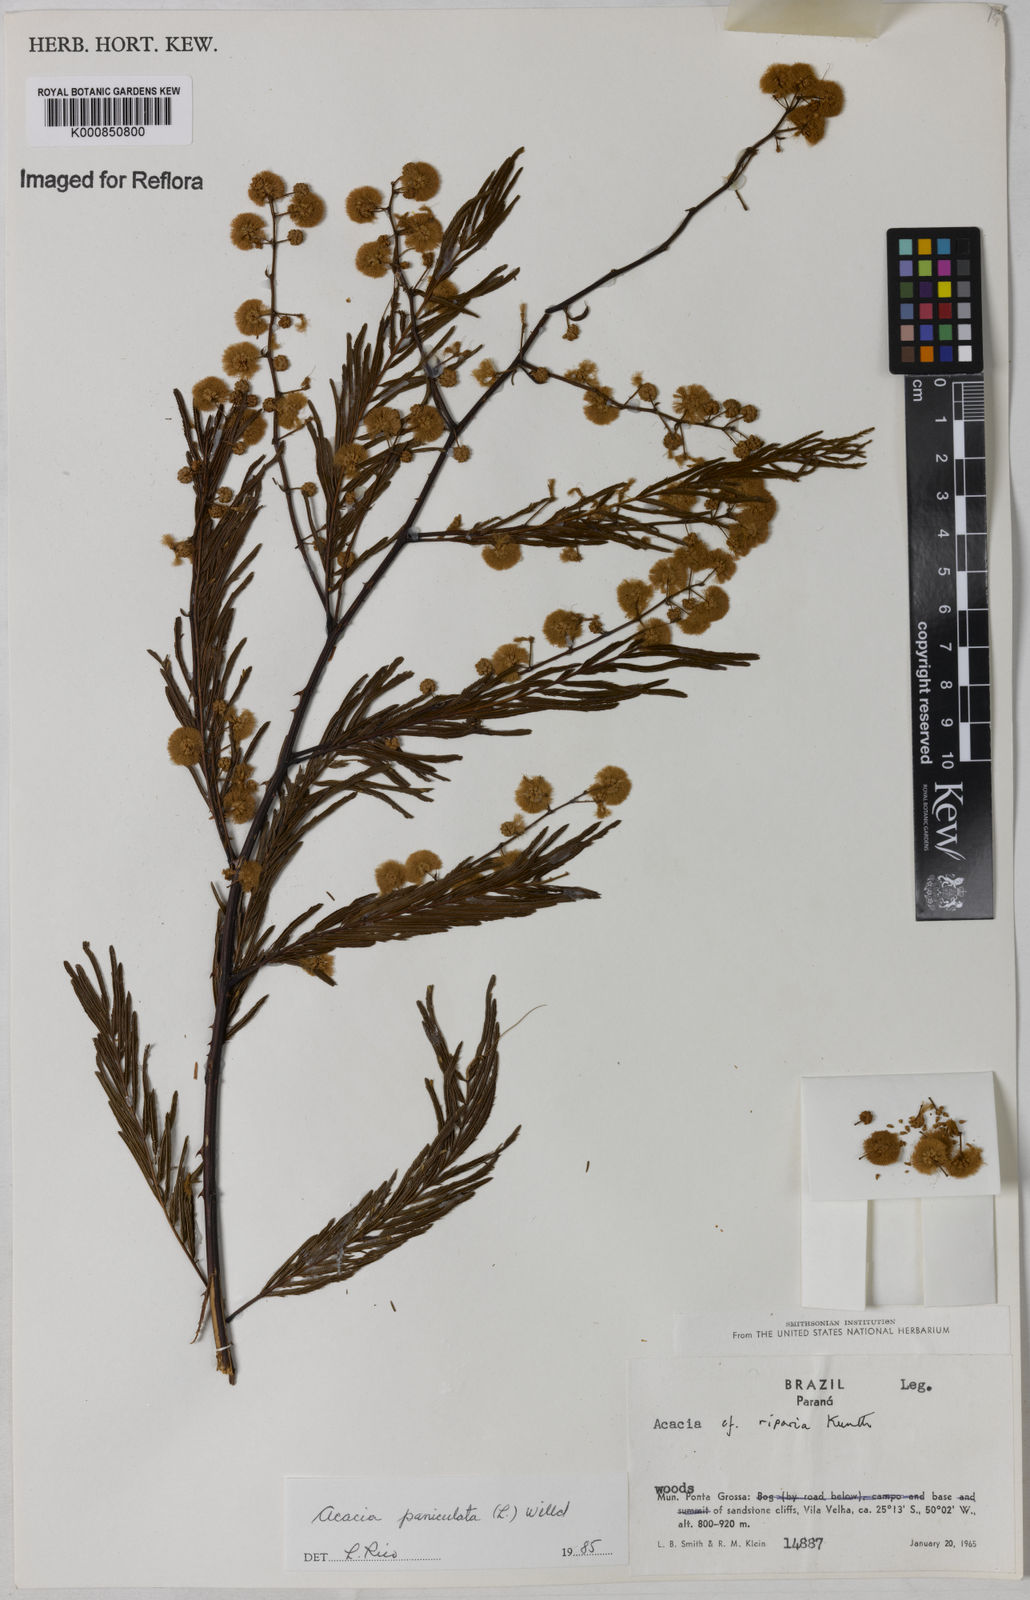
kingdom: Plantae
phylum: Tracheophyta
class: Magnoliopsida
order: Fabales
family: Fabaceae
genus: Senegalia
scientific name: Senegalia tenuifolia
